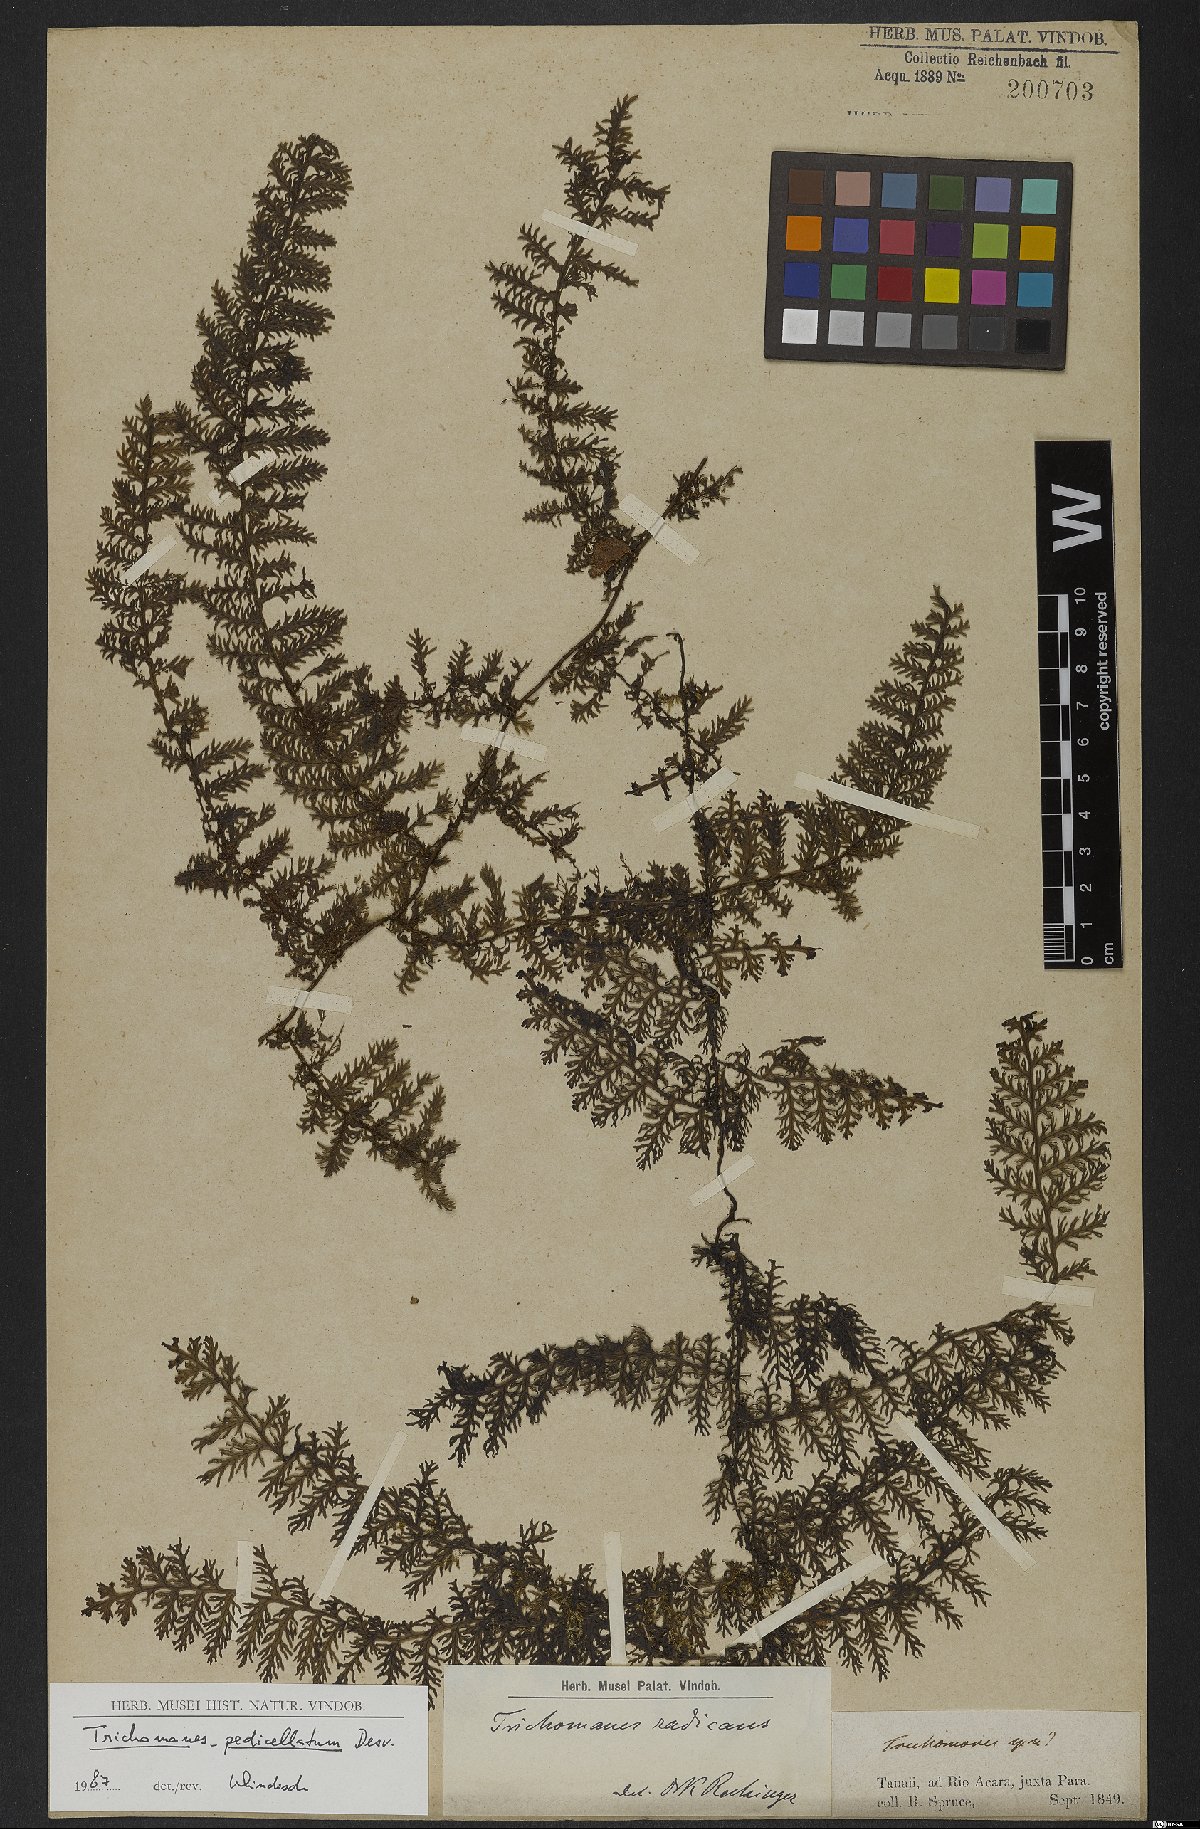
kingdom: Plantae
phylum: Tracheophyta
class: Polypodiopsida
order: Hymenophyllales
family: Hymenophyllaceae
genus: Trichomanes
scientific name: Trichomanes pedicellatum
